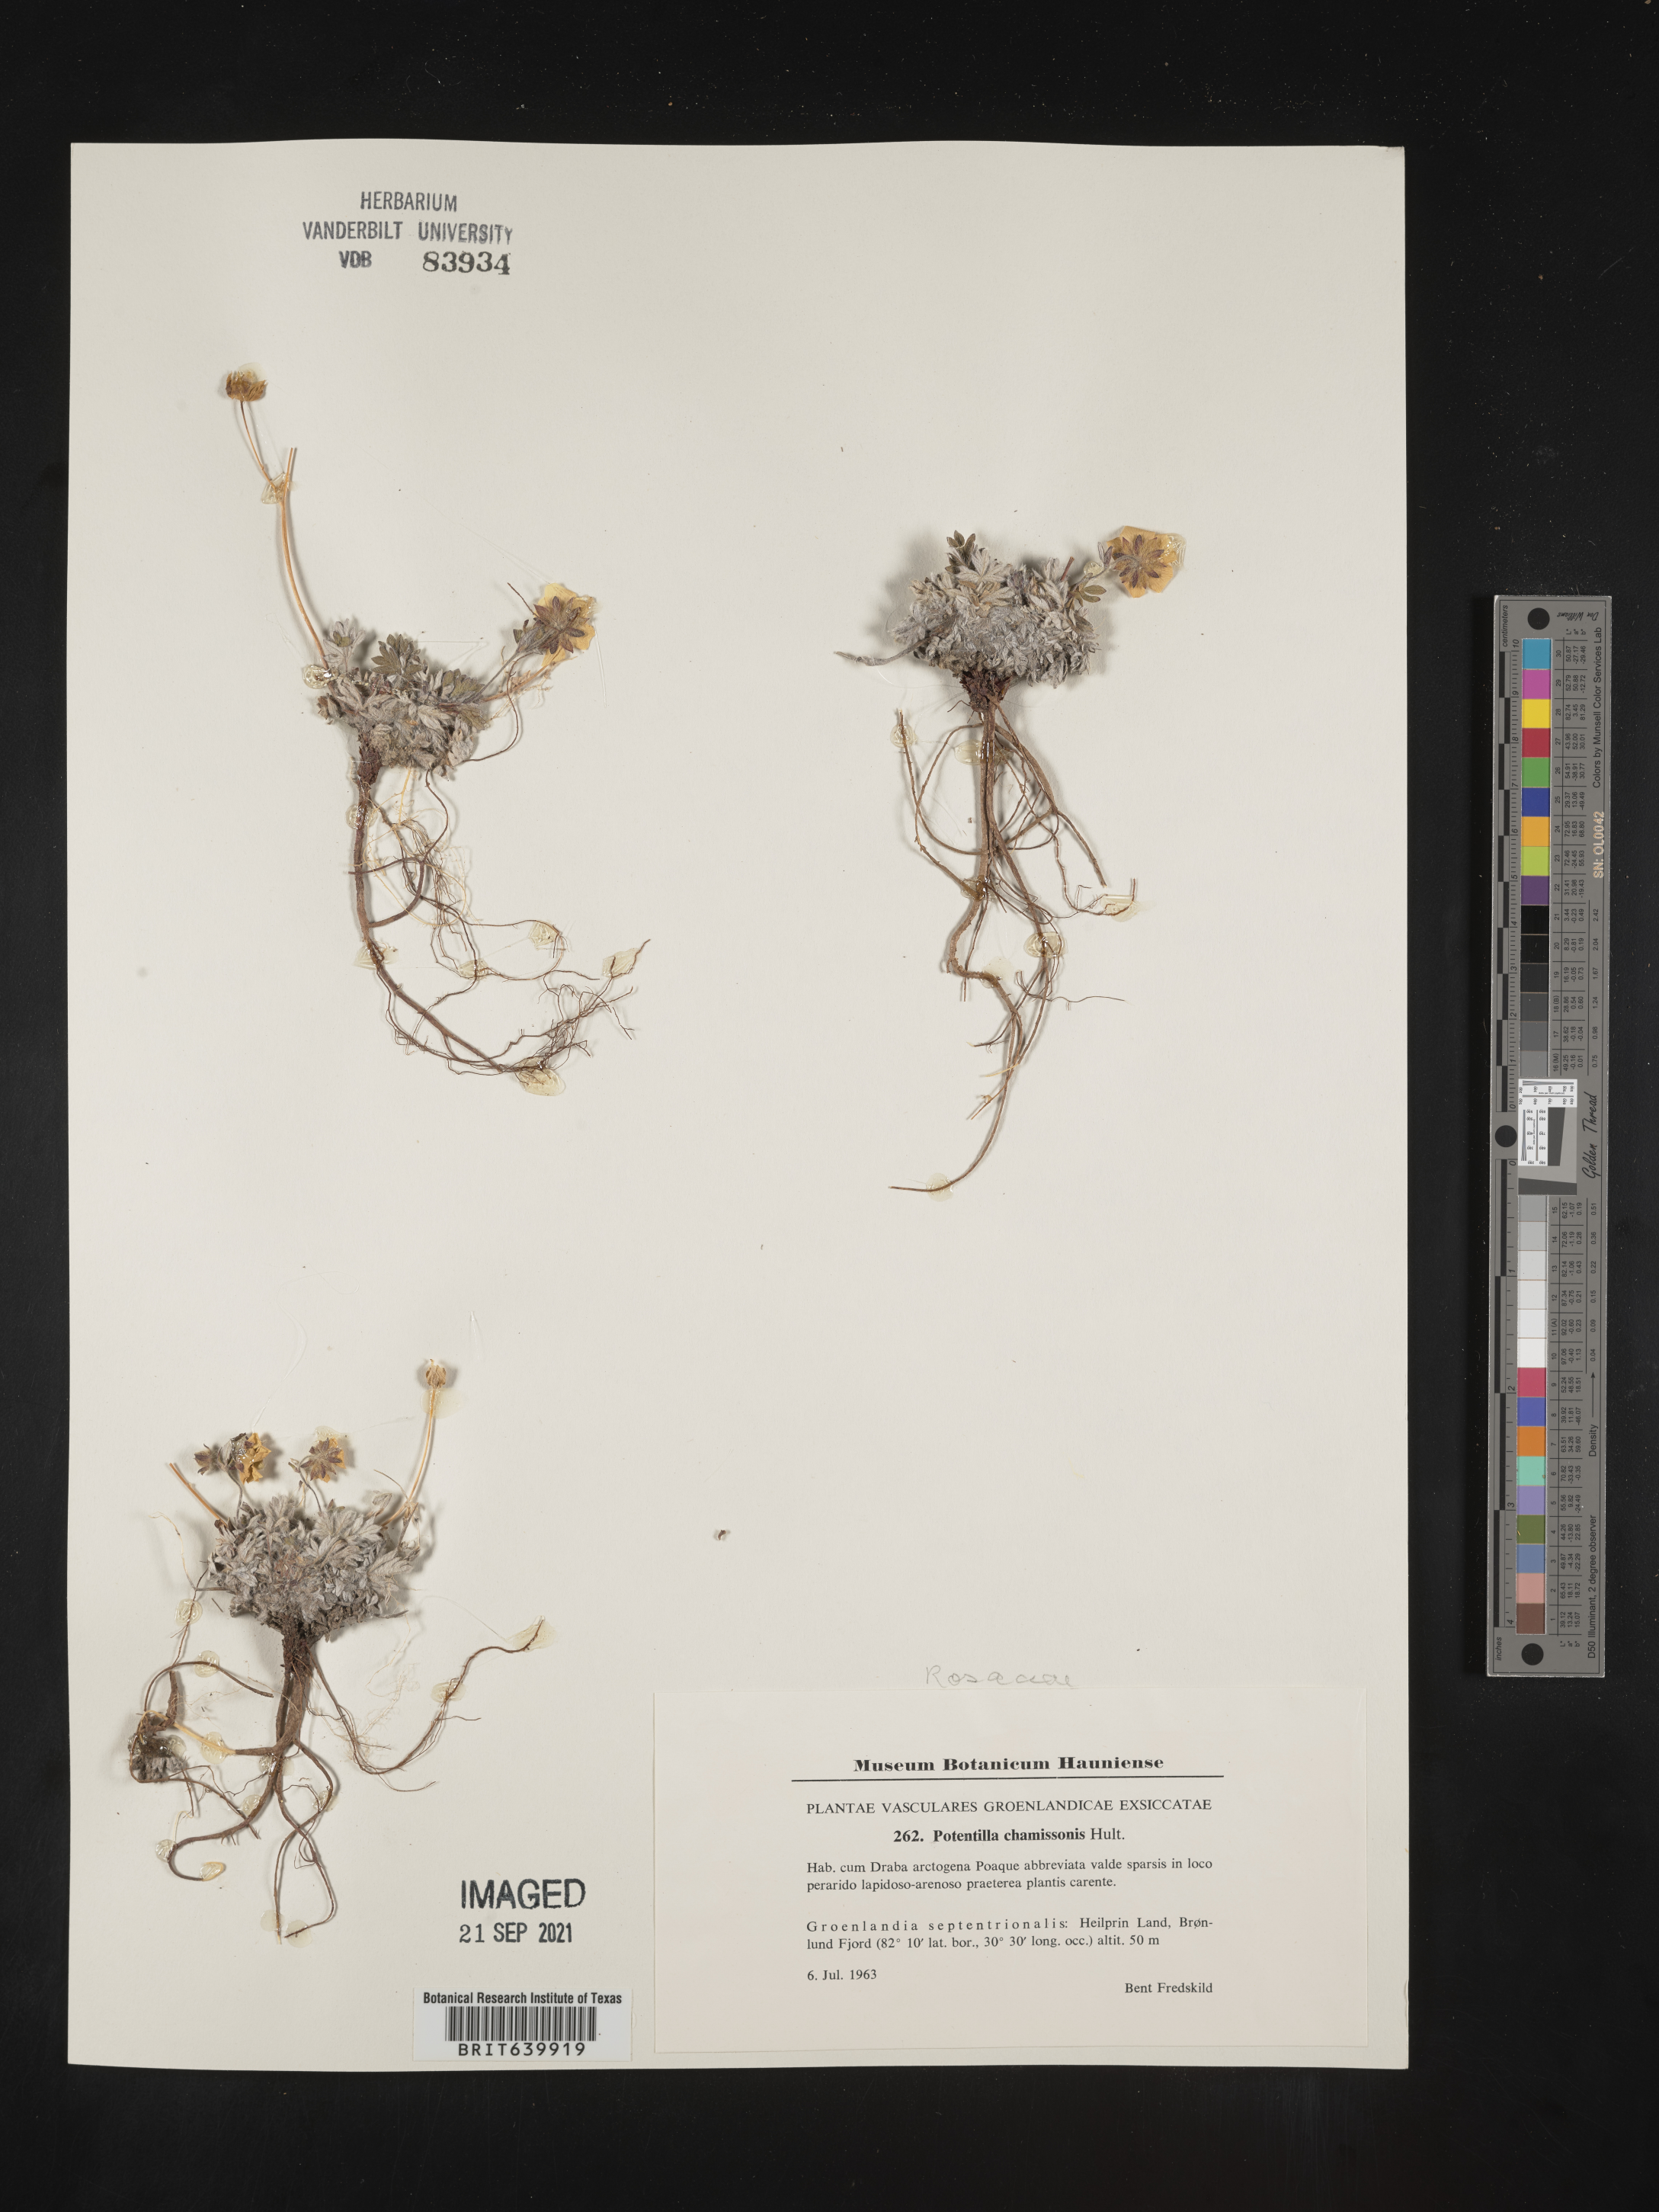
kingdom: Plantae
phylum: Tracheophyta
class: Magnoliopsida
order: Rosales
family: Rosaceae
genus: Potentilla
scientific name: Potentilla
